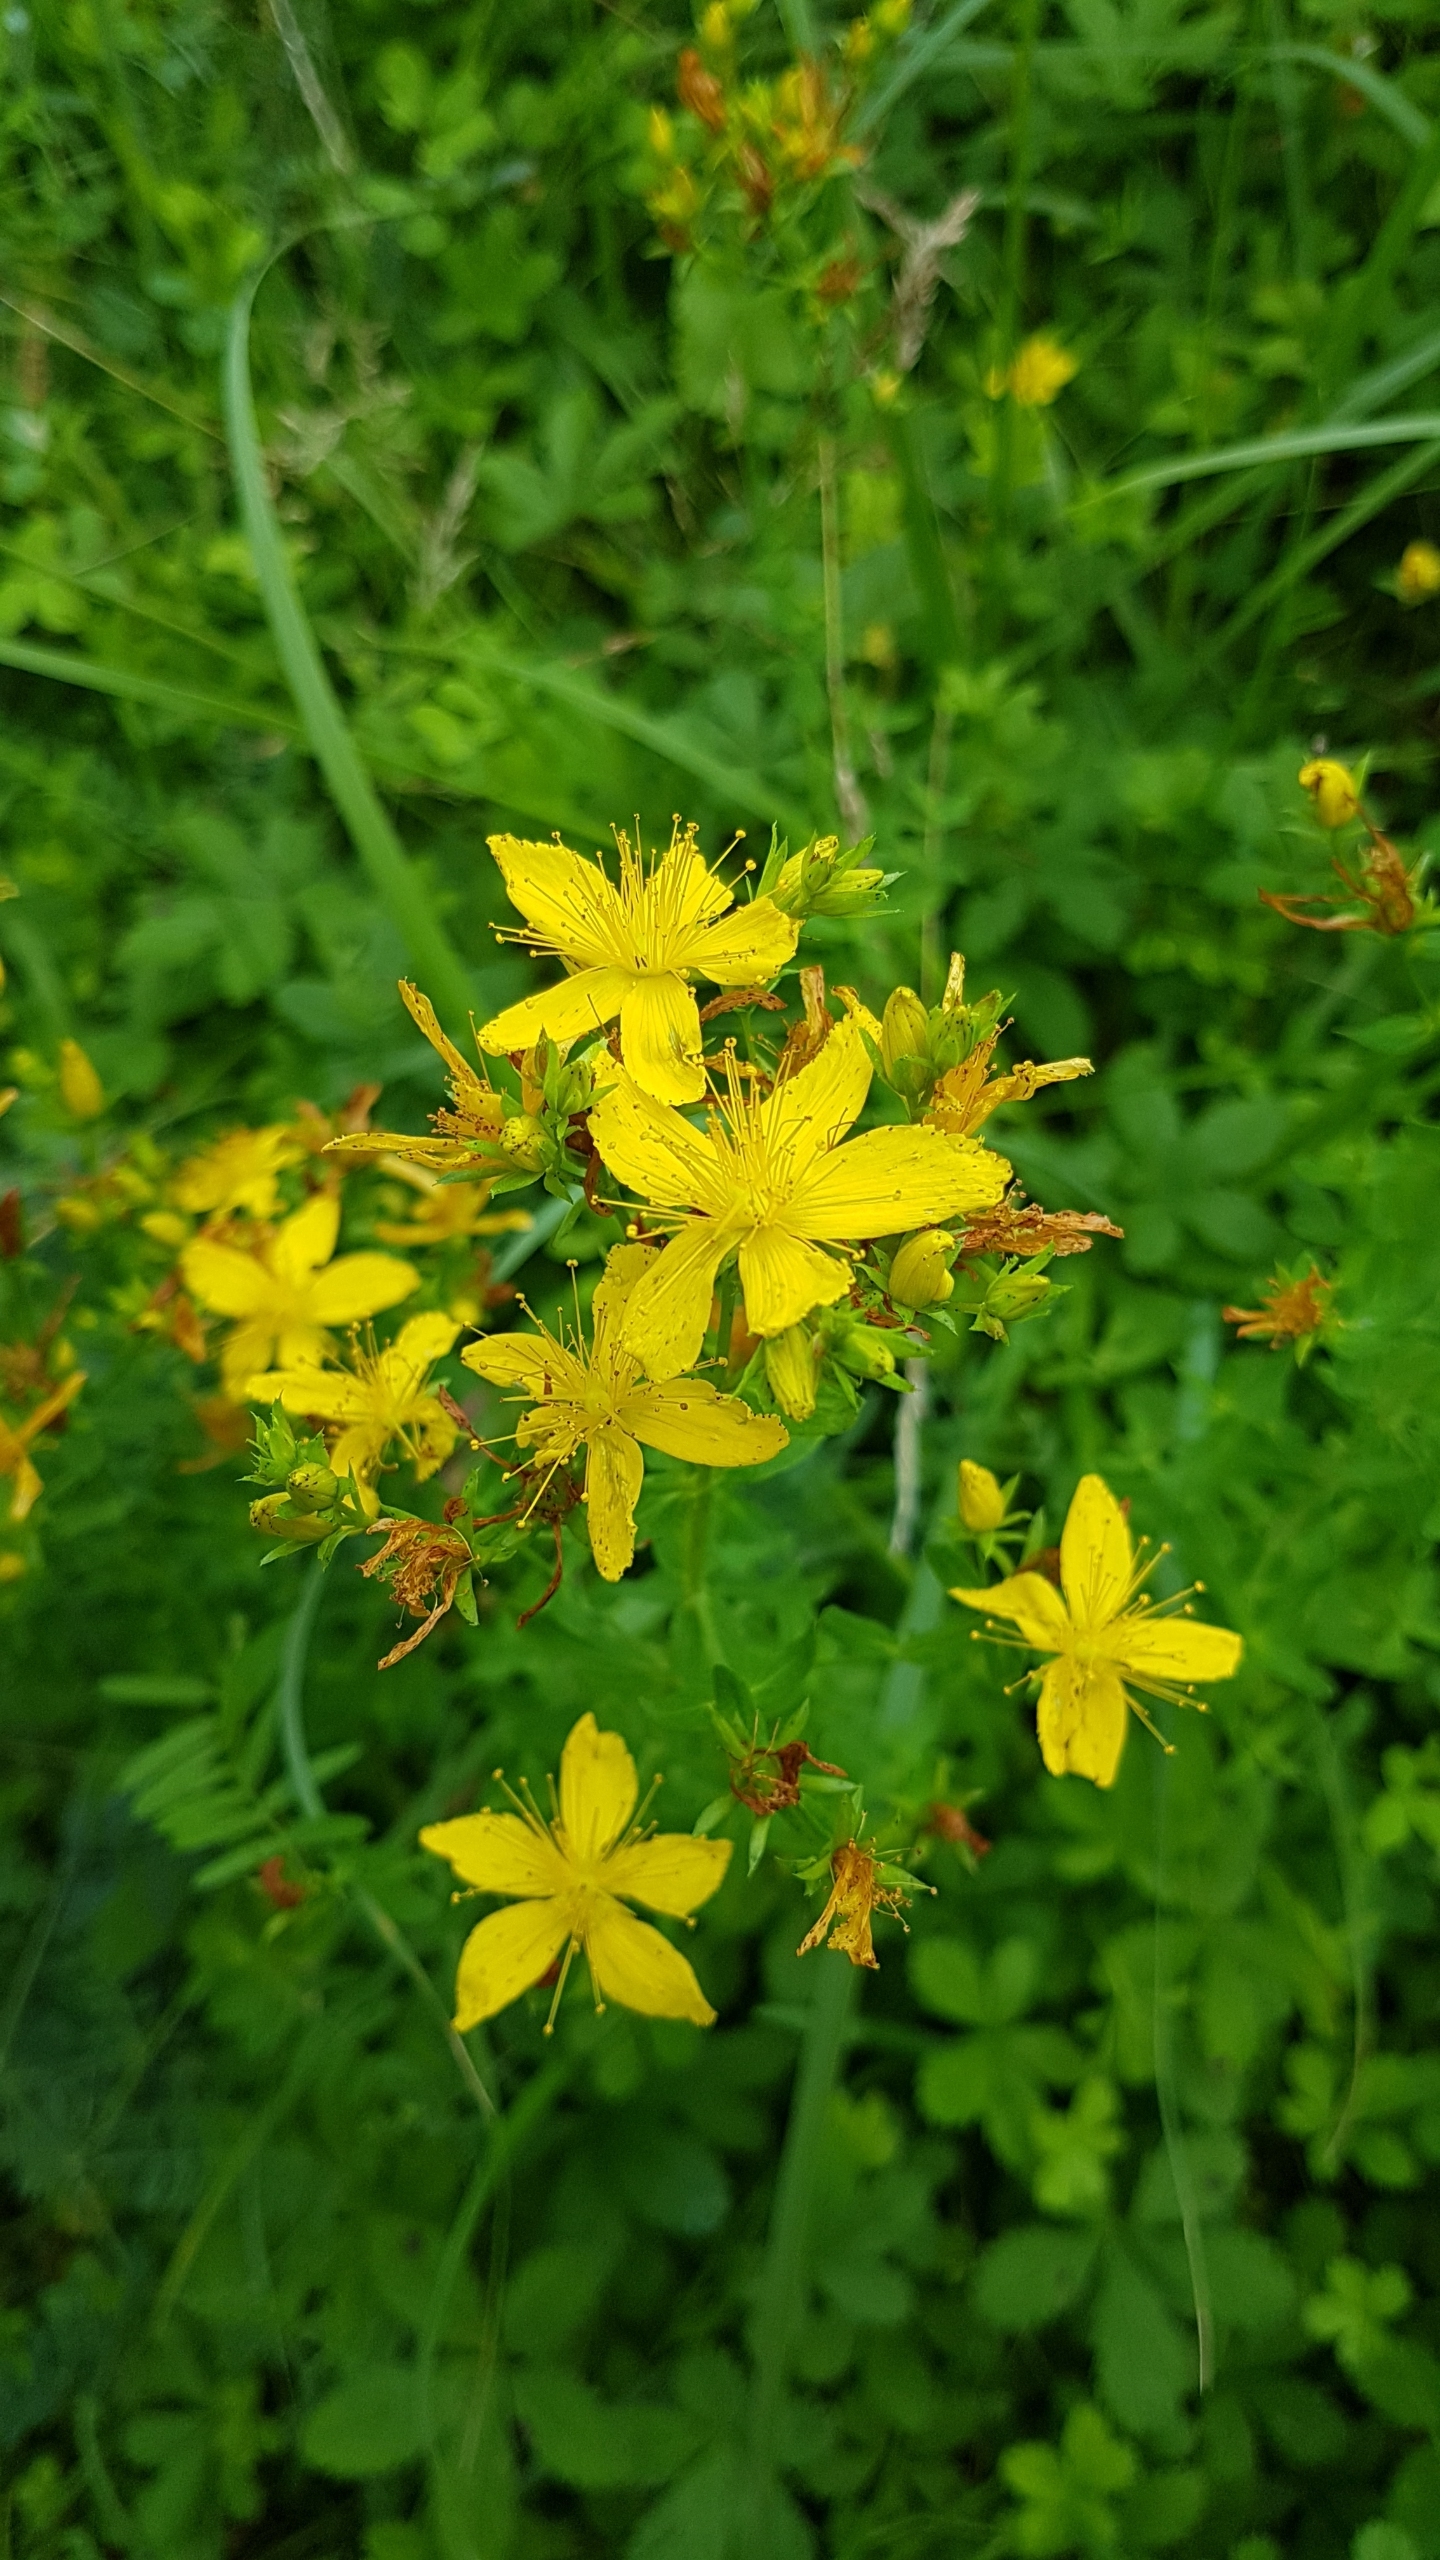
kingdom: Plantae
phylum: Tracheophyta
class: Magnoliopsida
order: Malpighiales
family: Hypericaceae
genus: Hypericum
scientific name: Hypericum perforatum
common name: Prikbladet perikon
